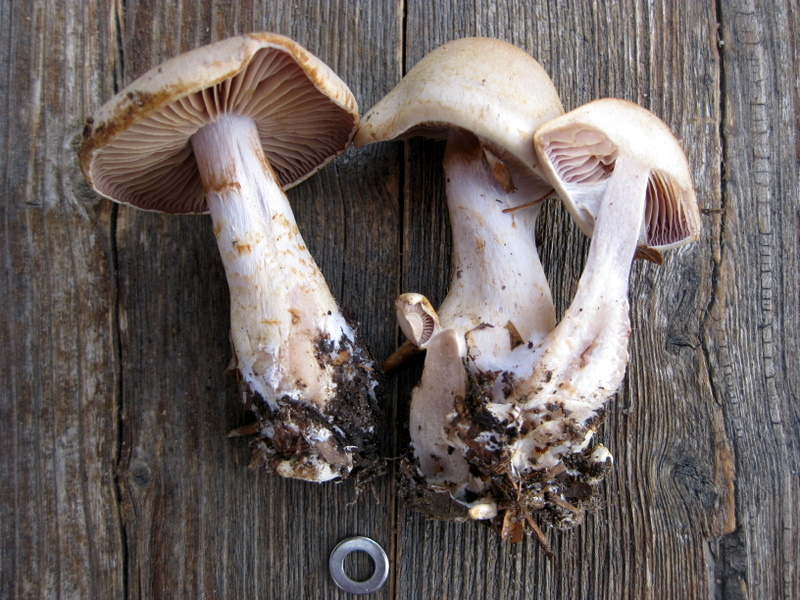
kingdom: Fungi
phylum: Basidiomycota
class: Agaricomycetes
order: Agaricales
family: Cortinariaceae
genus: Cortinarius
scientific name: Cortinarius lebretonii
